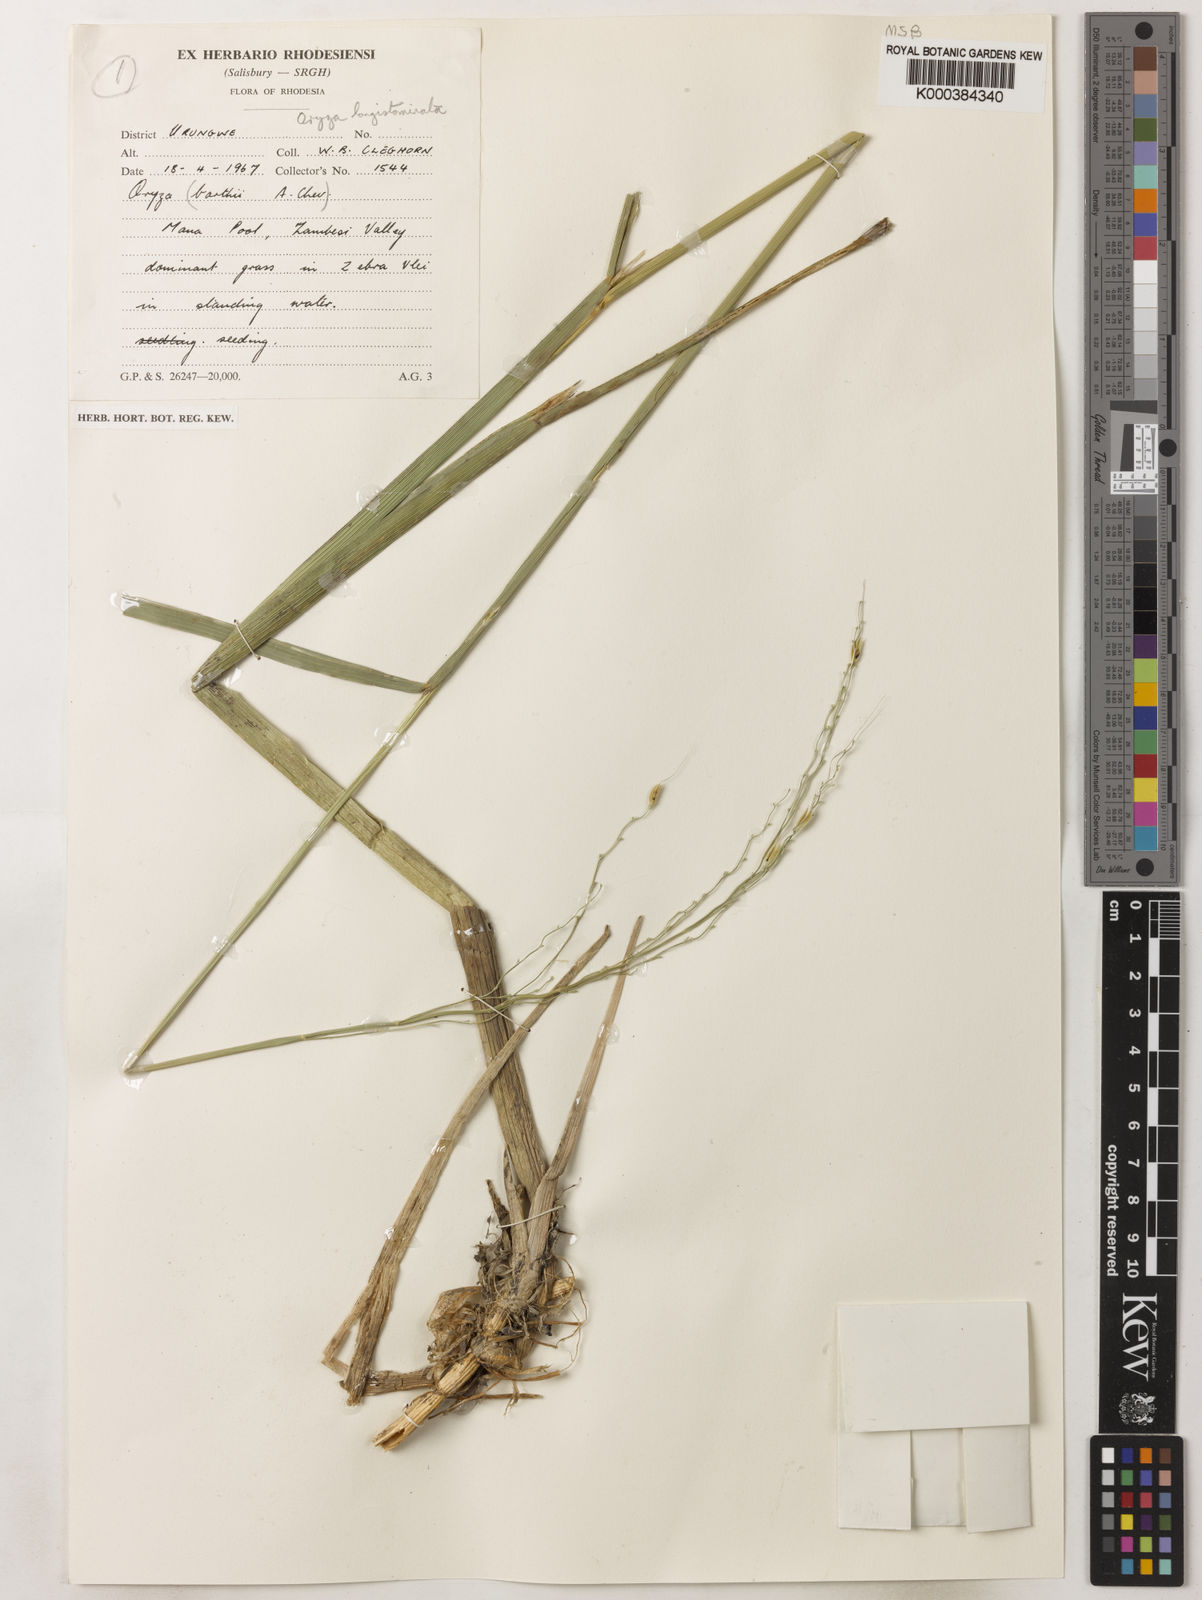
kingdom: Plantae
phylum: Tracheophyta
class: Liliopsida
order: Poales
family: Poaceae
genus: Oryza
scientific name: Oryza longistaminata
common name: Red rice
